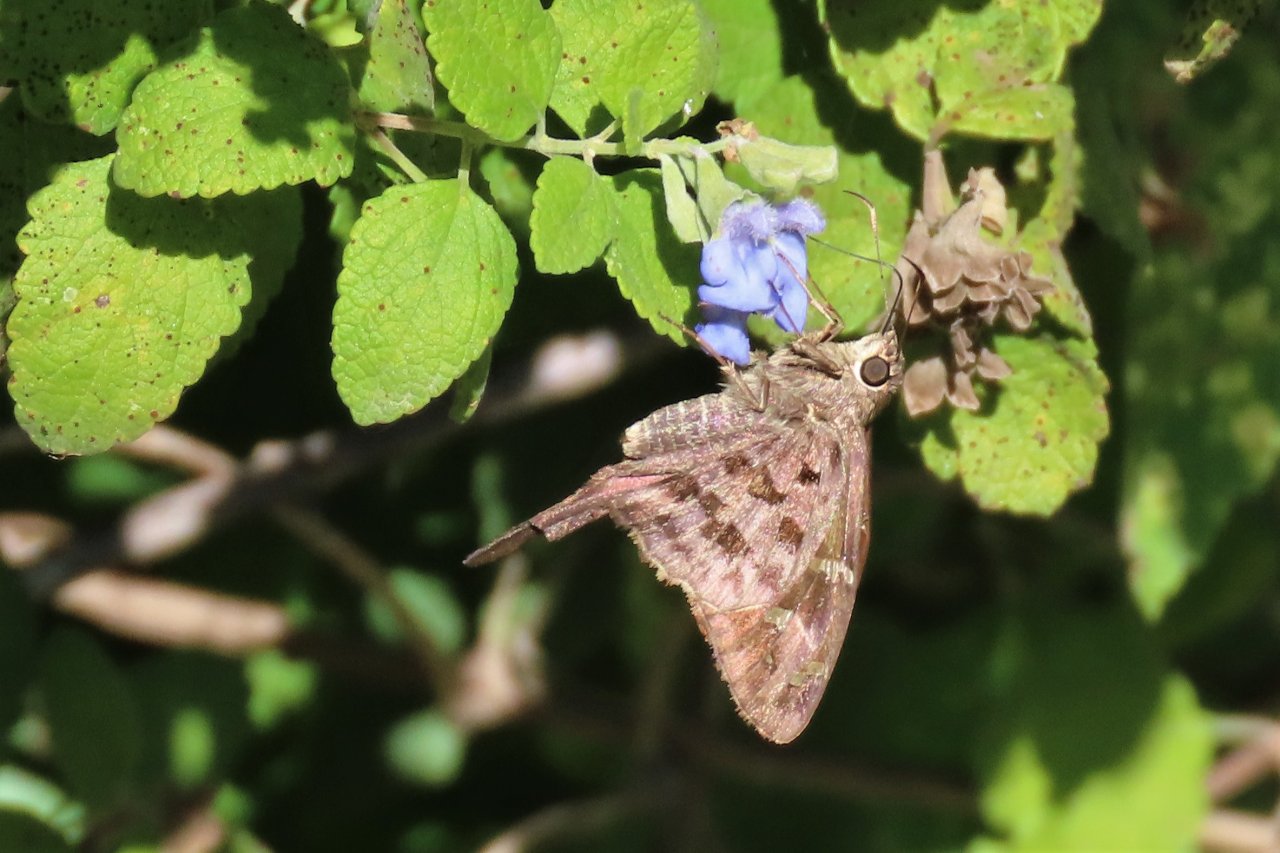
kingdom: Animalia
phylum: Arthropoda
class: Insecta
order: Lepidoptera
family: Hesperiidae
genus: Urbanus
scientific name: Urbanus dorantes
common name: Dorantes Longtail
